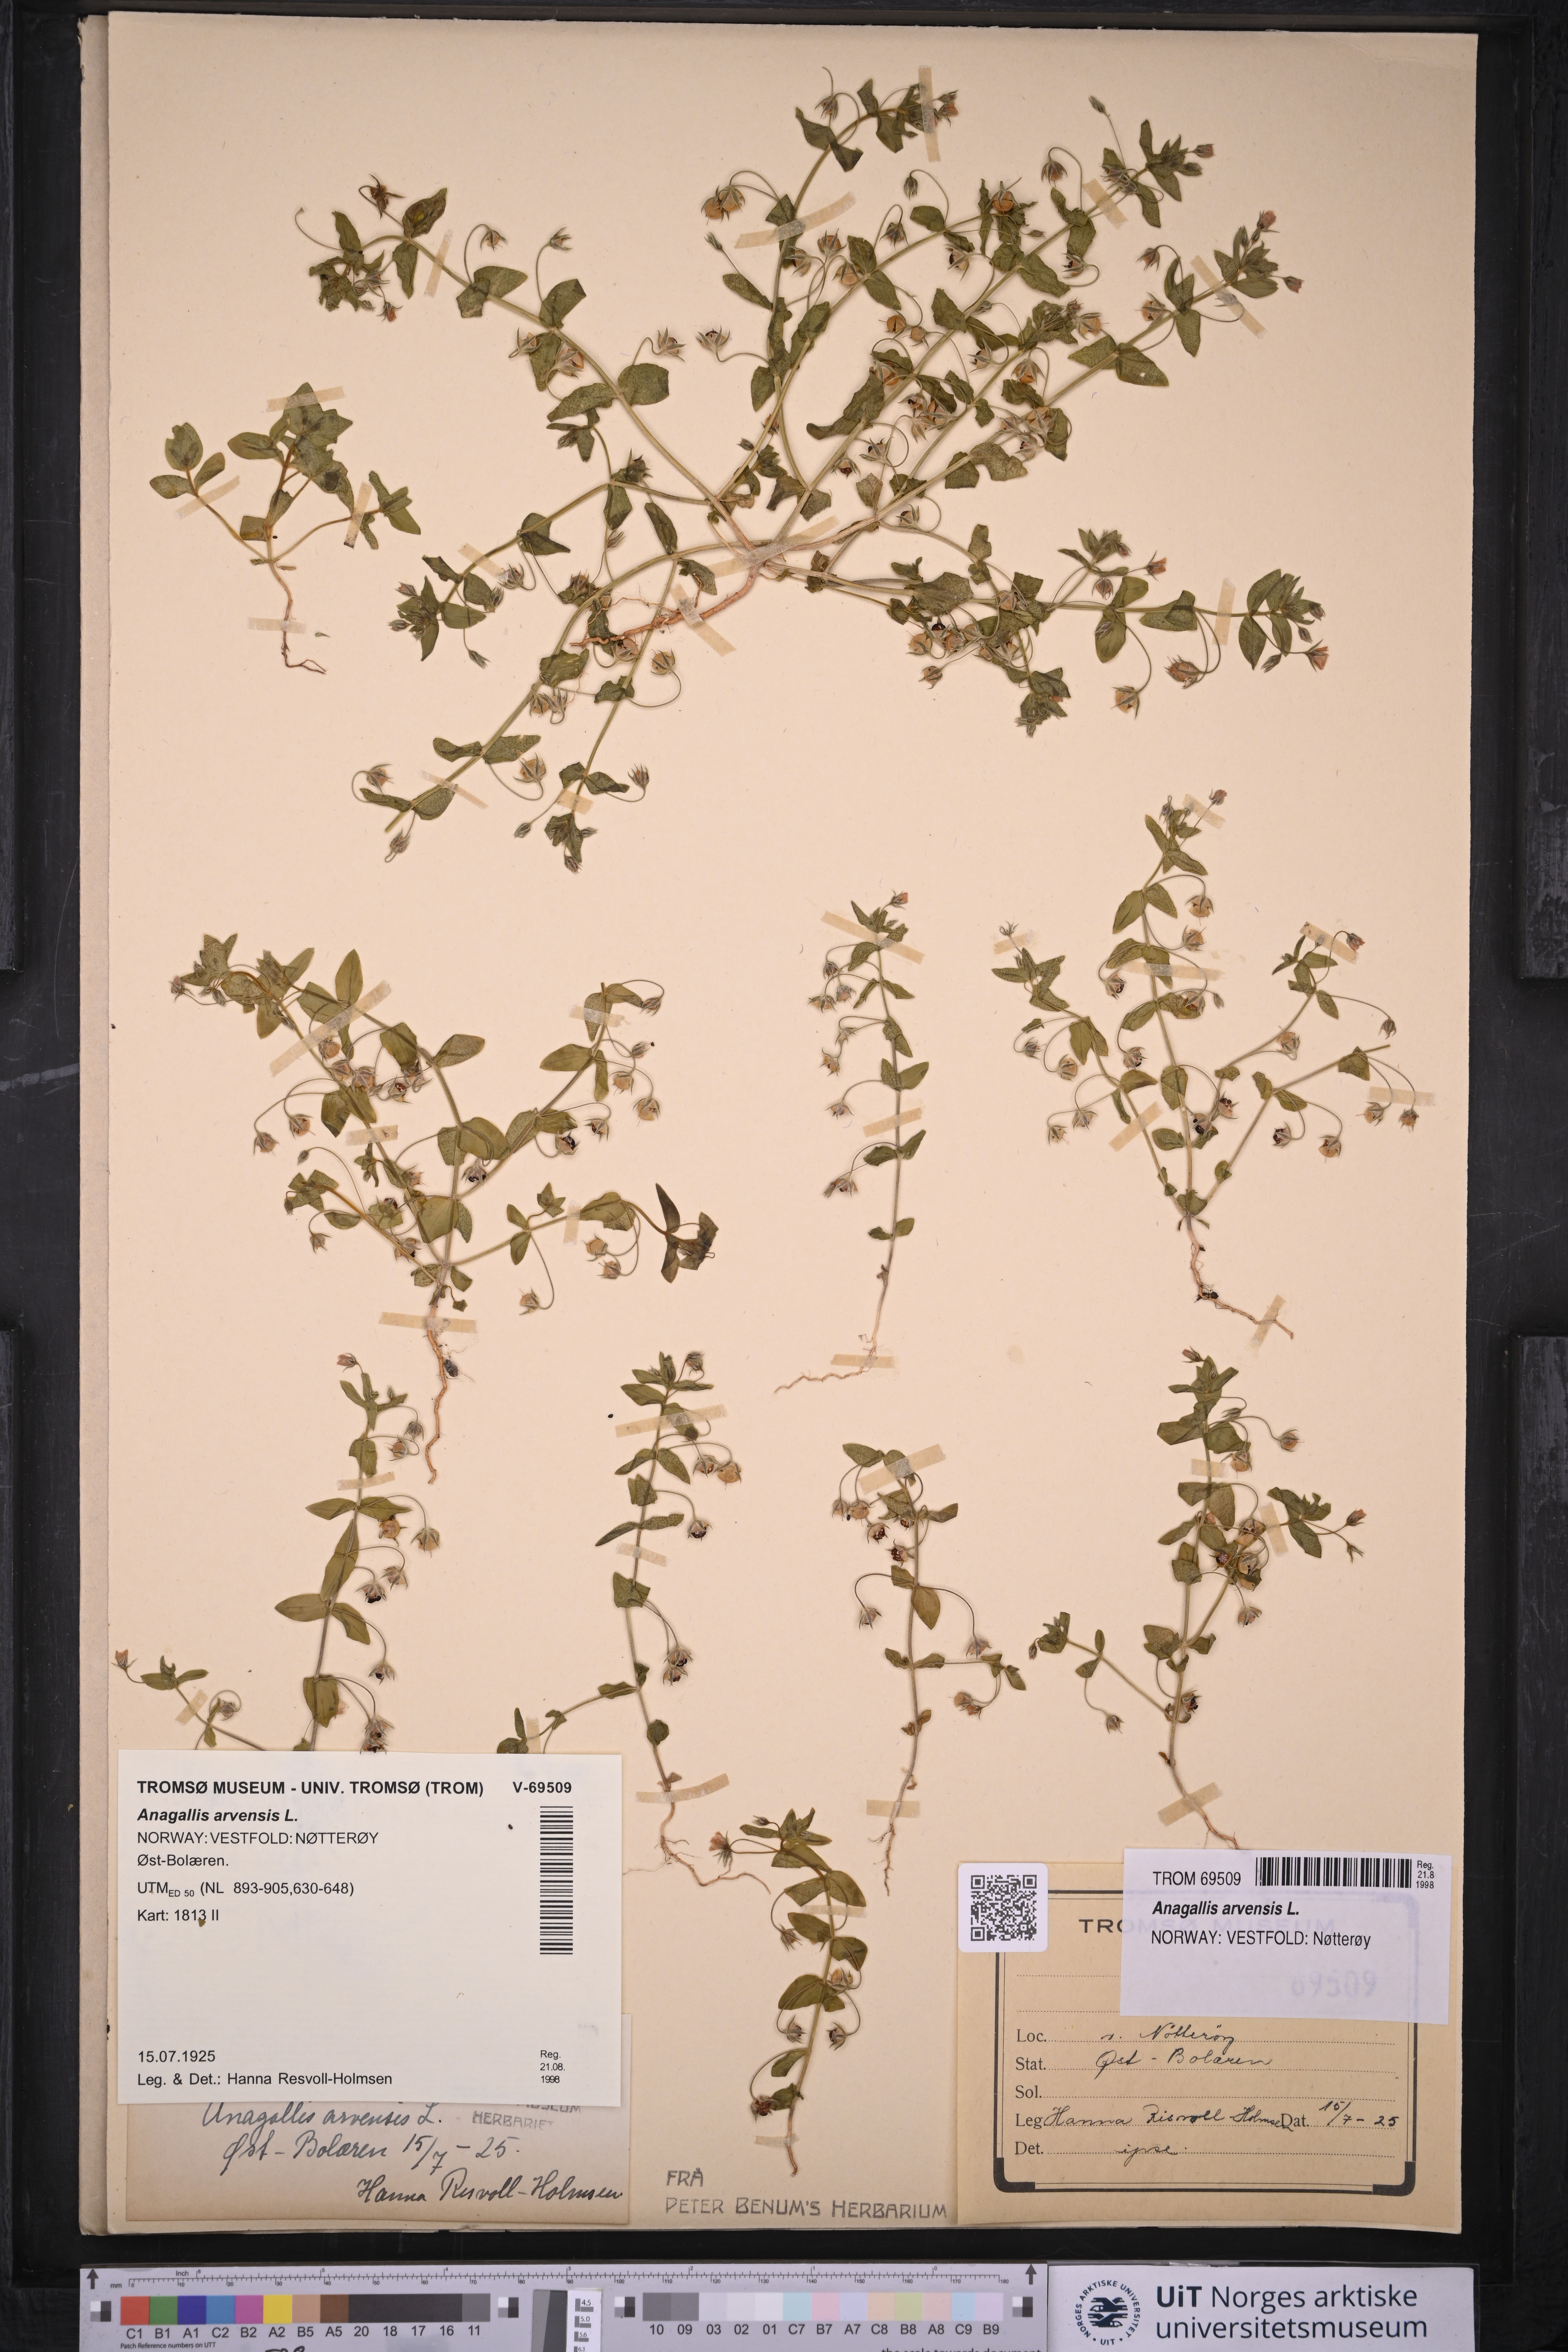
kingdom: Plantae
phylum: Tracheophyta
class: Magnoliopsida
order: Ericales
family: Primulaceae
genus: Lysimachia
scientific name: Lysimachia arvensis
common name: Scarlet pimpernel
